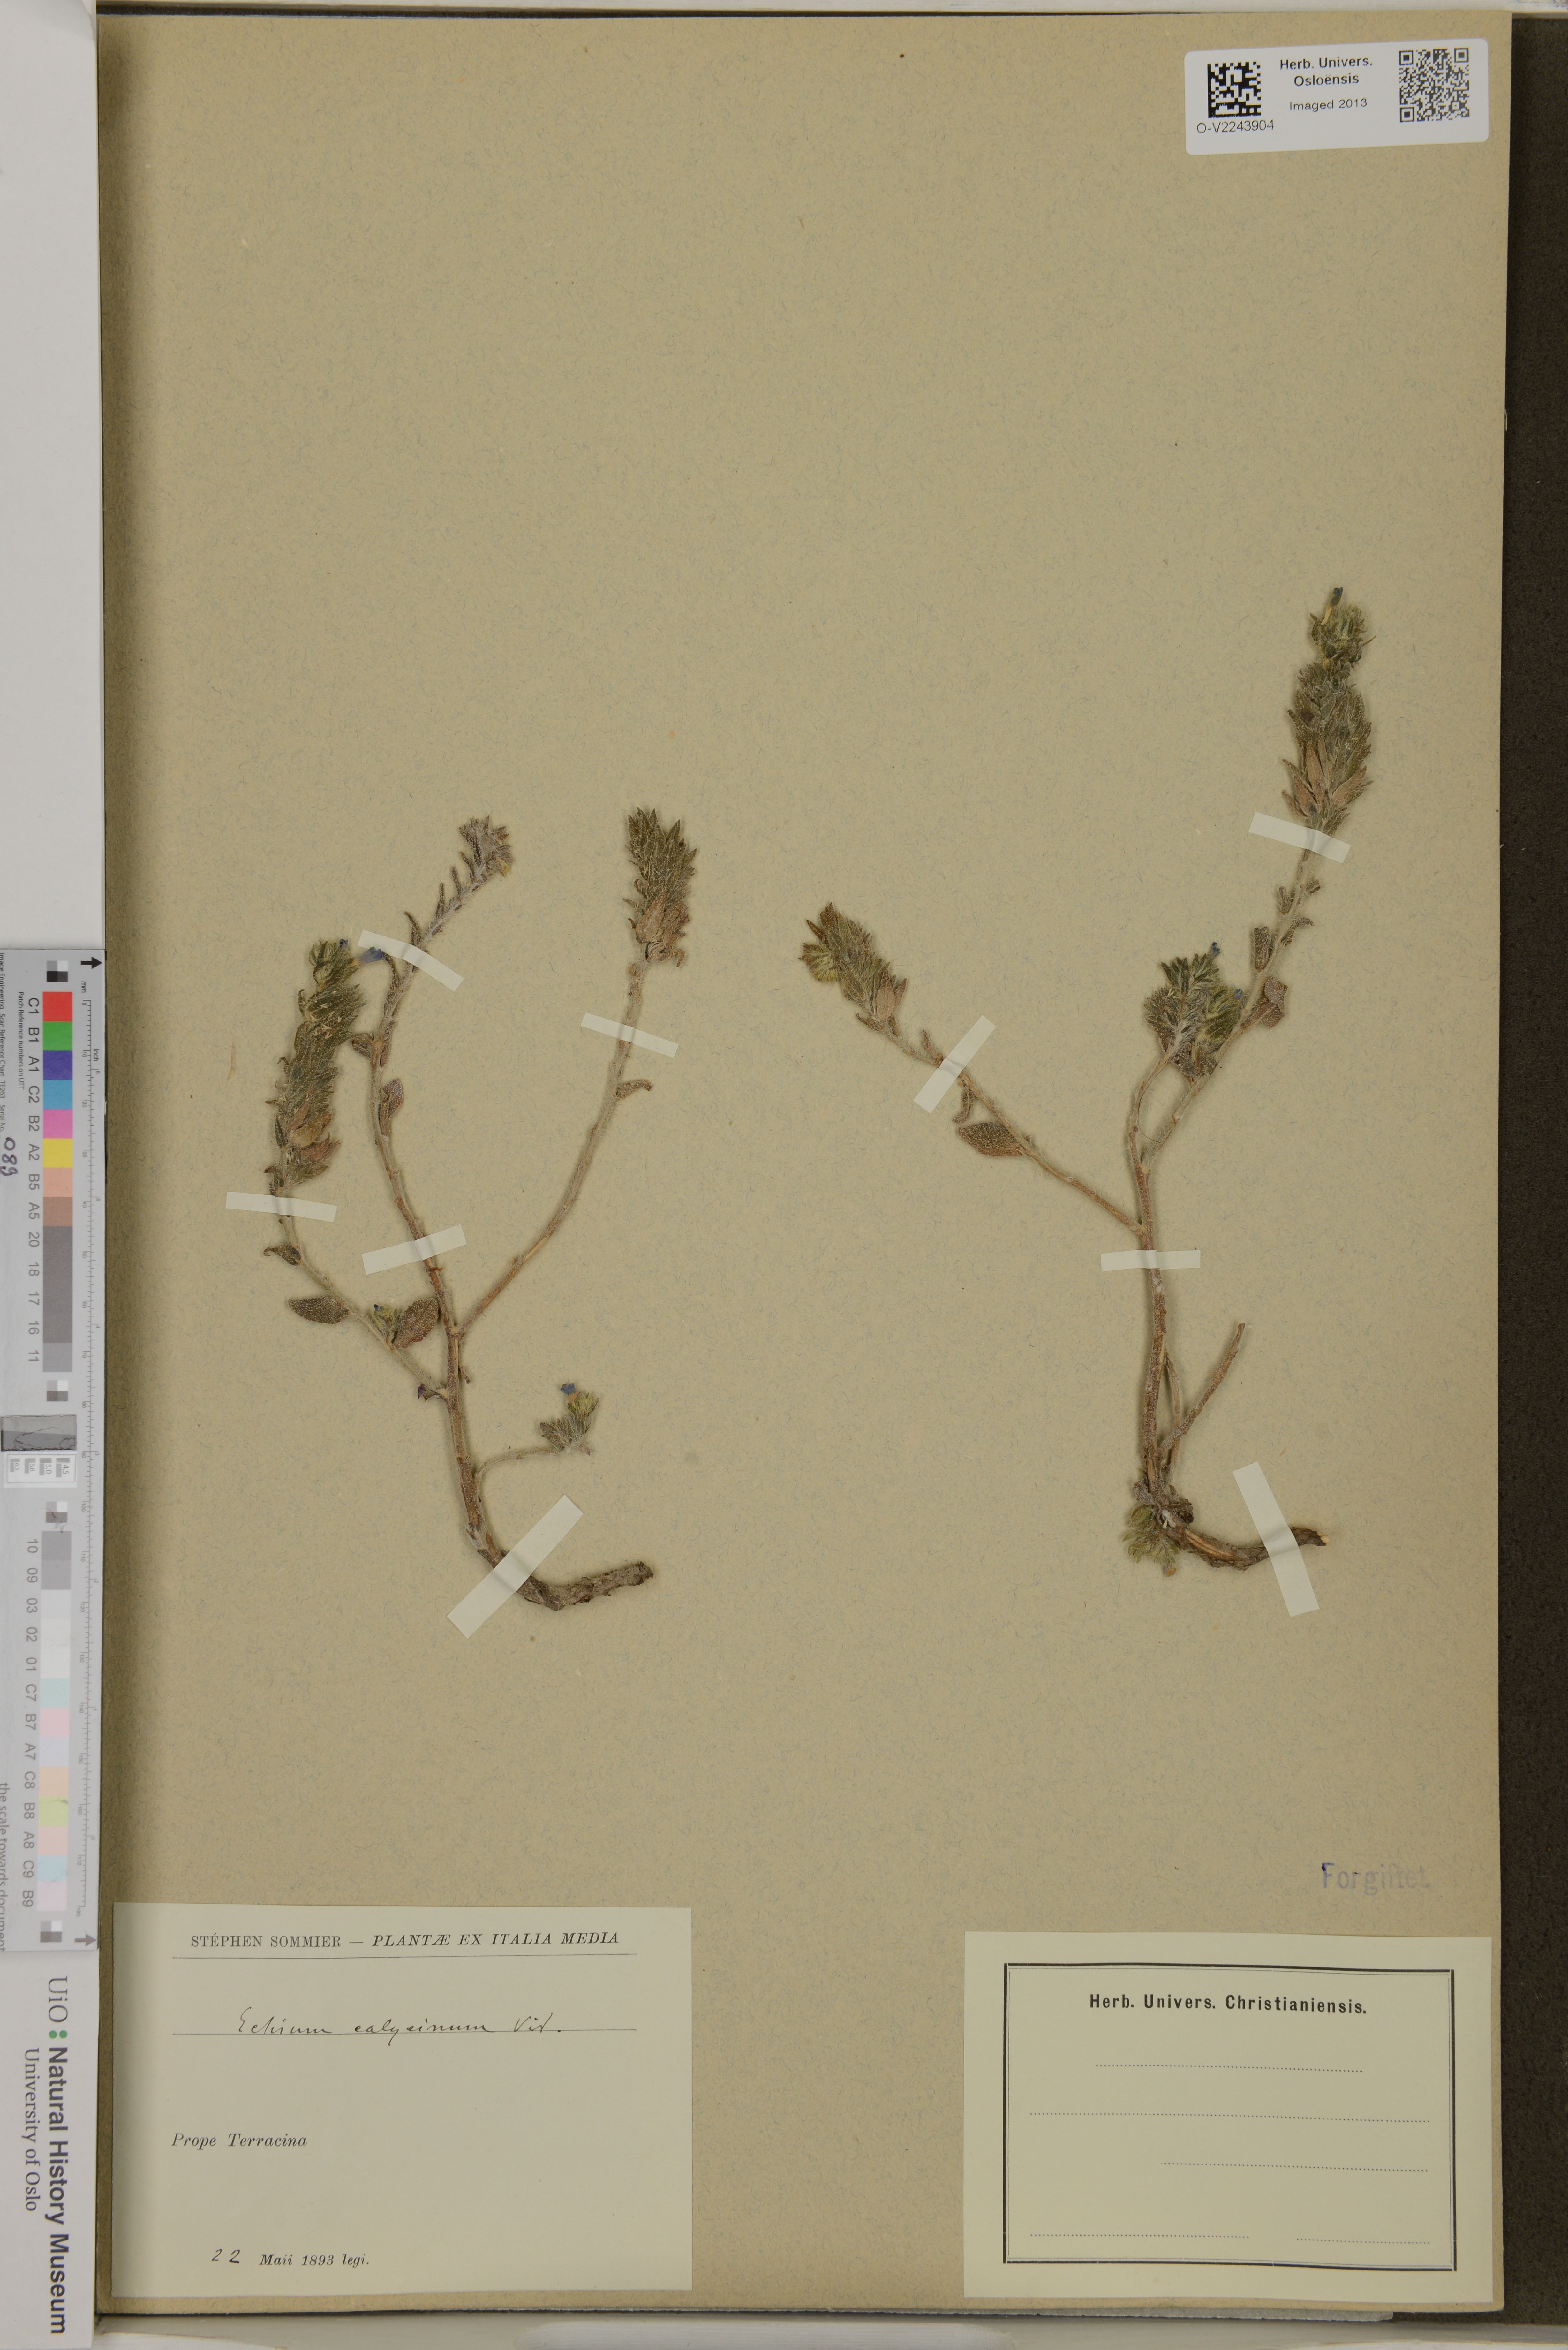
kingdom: Plantae
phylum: Tracheophyta
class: Magnoliopsida
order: Boraginales
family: Boraginaceae
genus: Echium
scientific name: Echium parviflorum
